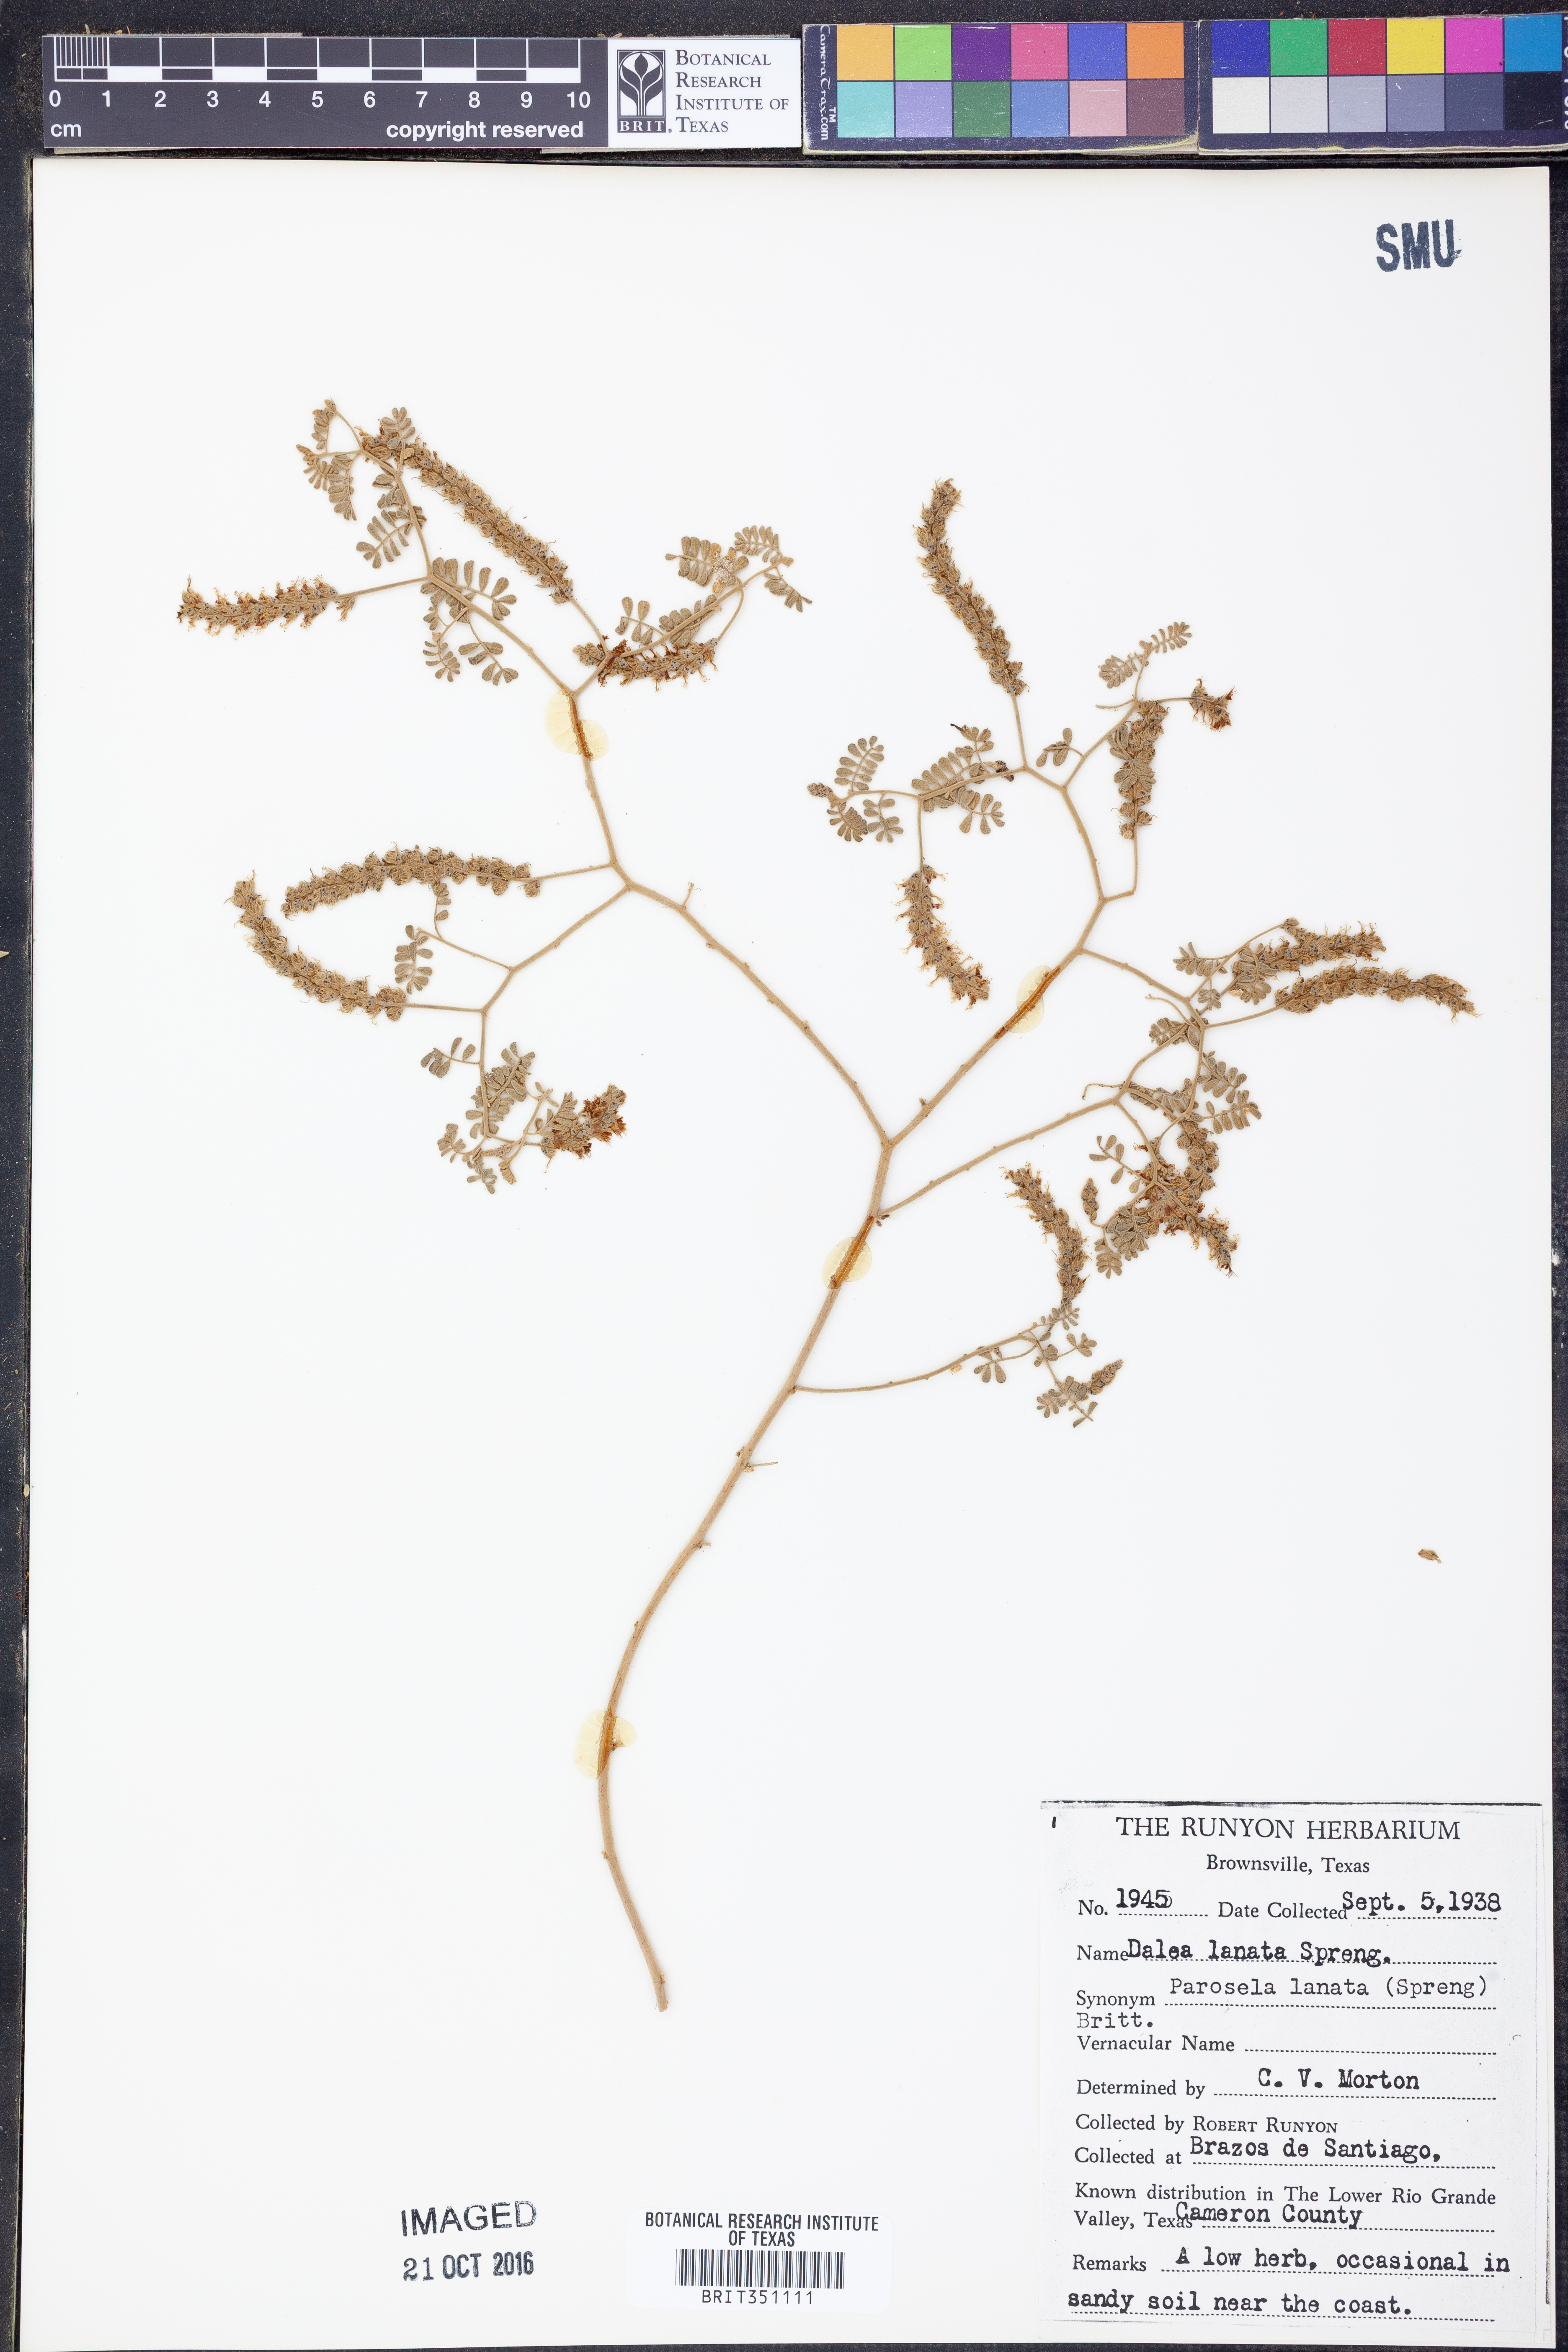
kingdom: Plantae
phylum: Tracheophyta
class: Magnoliopsida
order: Fabales
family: Fabaceae
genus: Dalea
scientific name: Dalea lanata
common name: Woolly dalea
